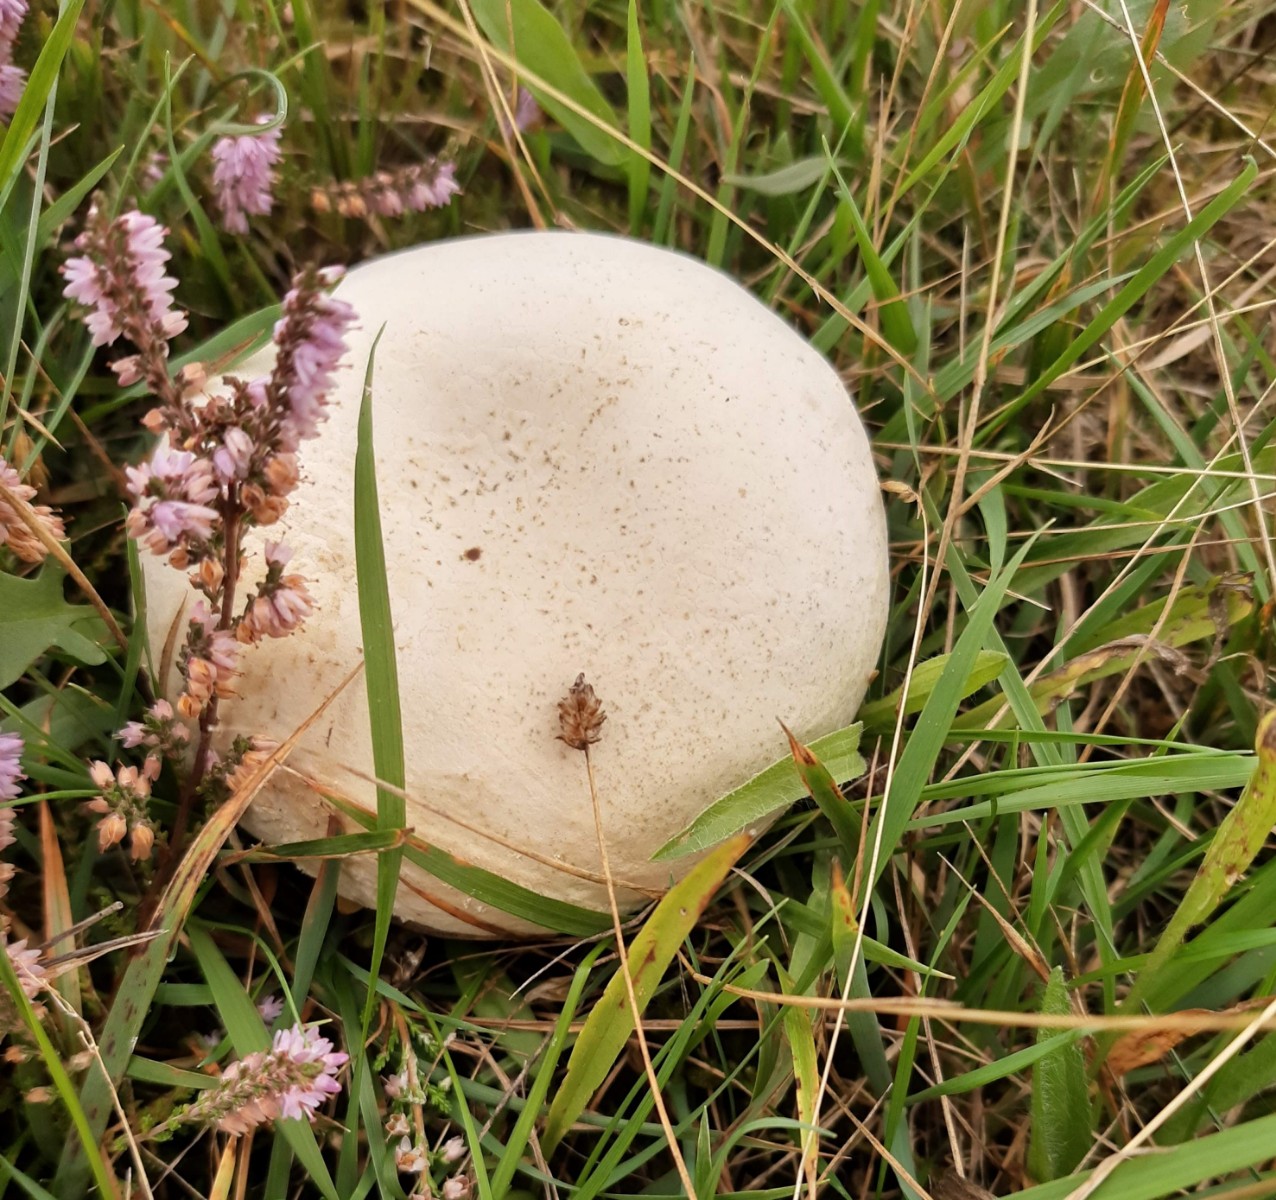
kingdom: Fungi
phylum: Basidiomycota
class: Agaricomycetes
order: Agaricales
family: Lycoperdaceae
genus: Calvatia
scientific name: Calvatia gigantea
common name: kæmpestøvbold
